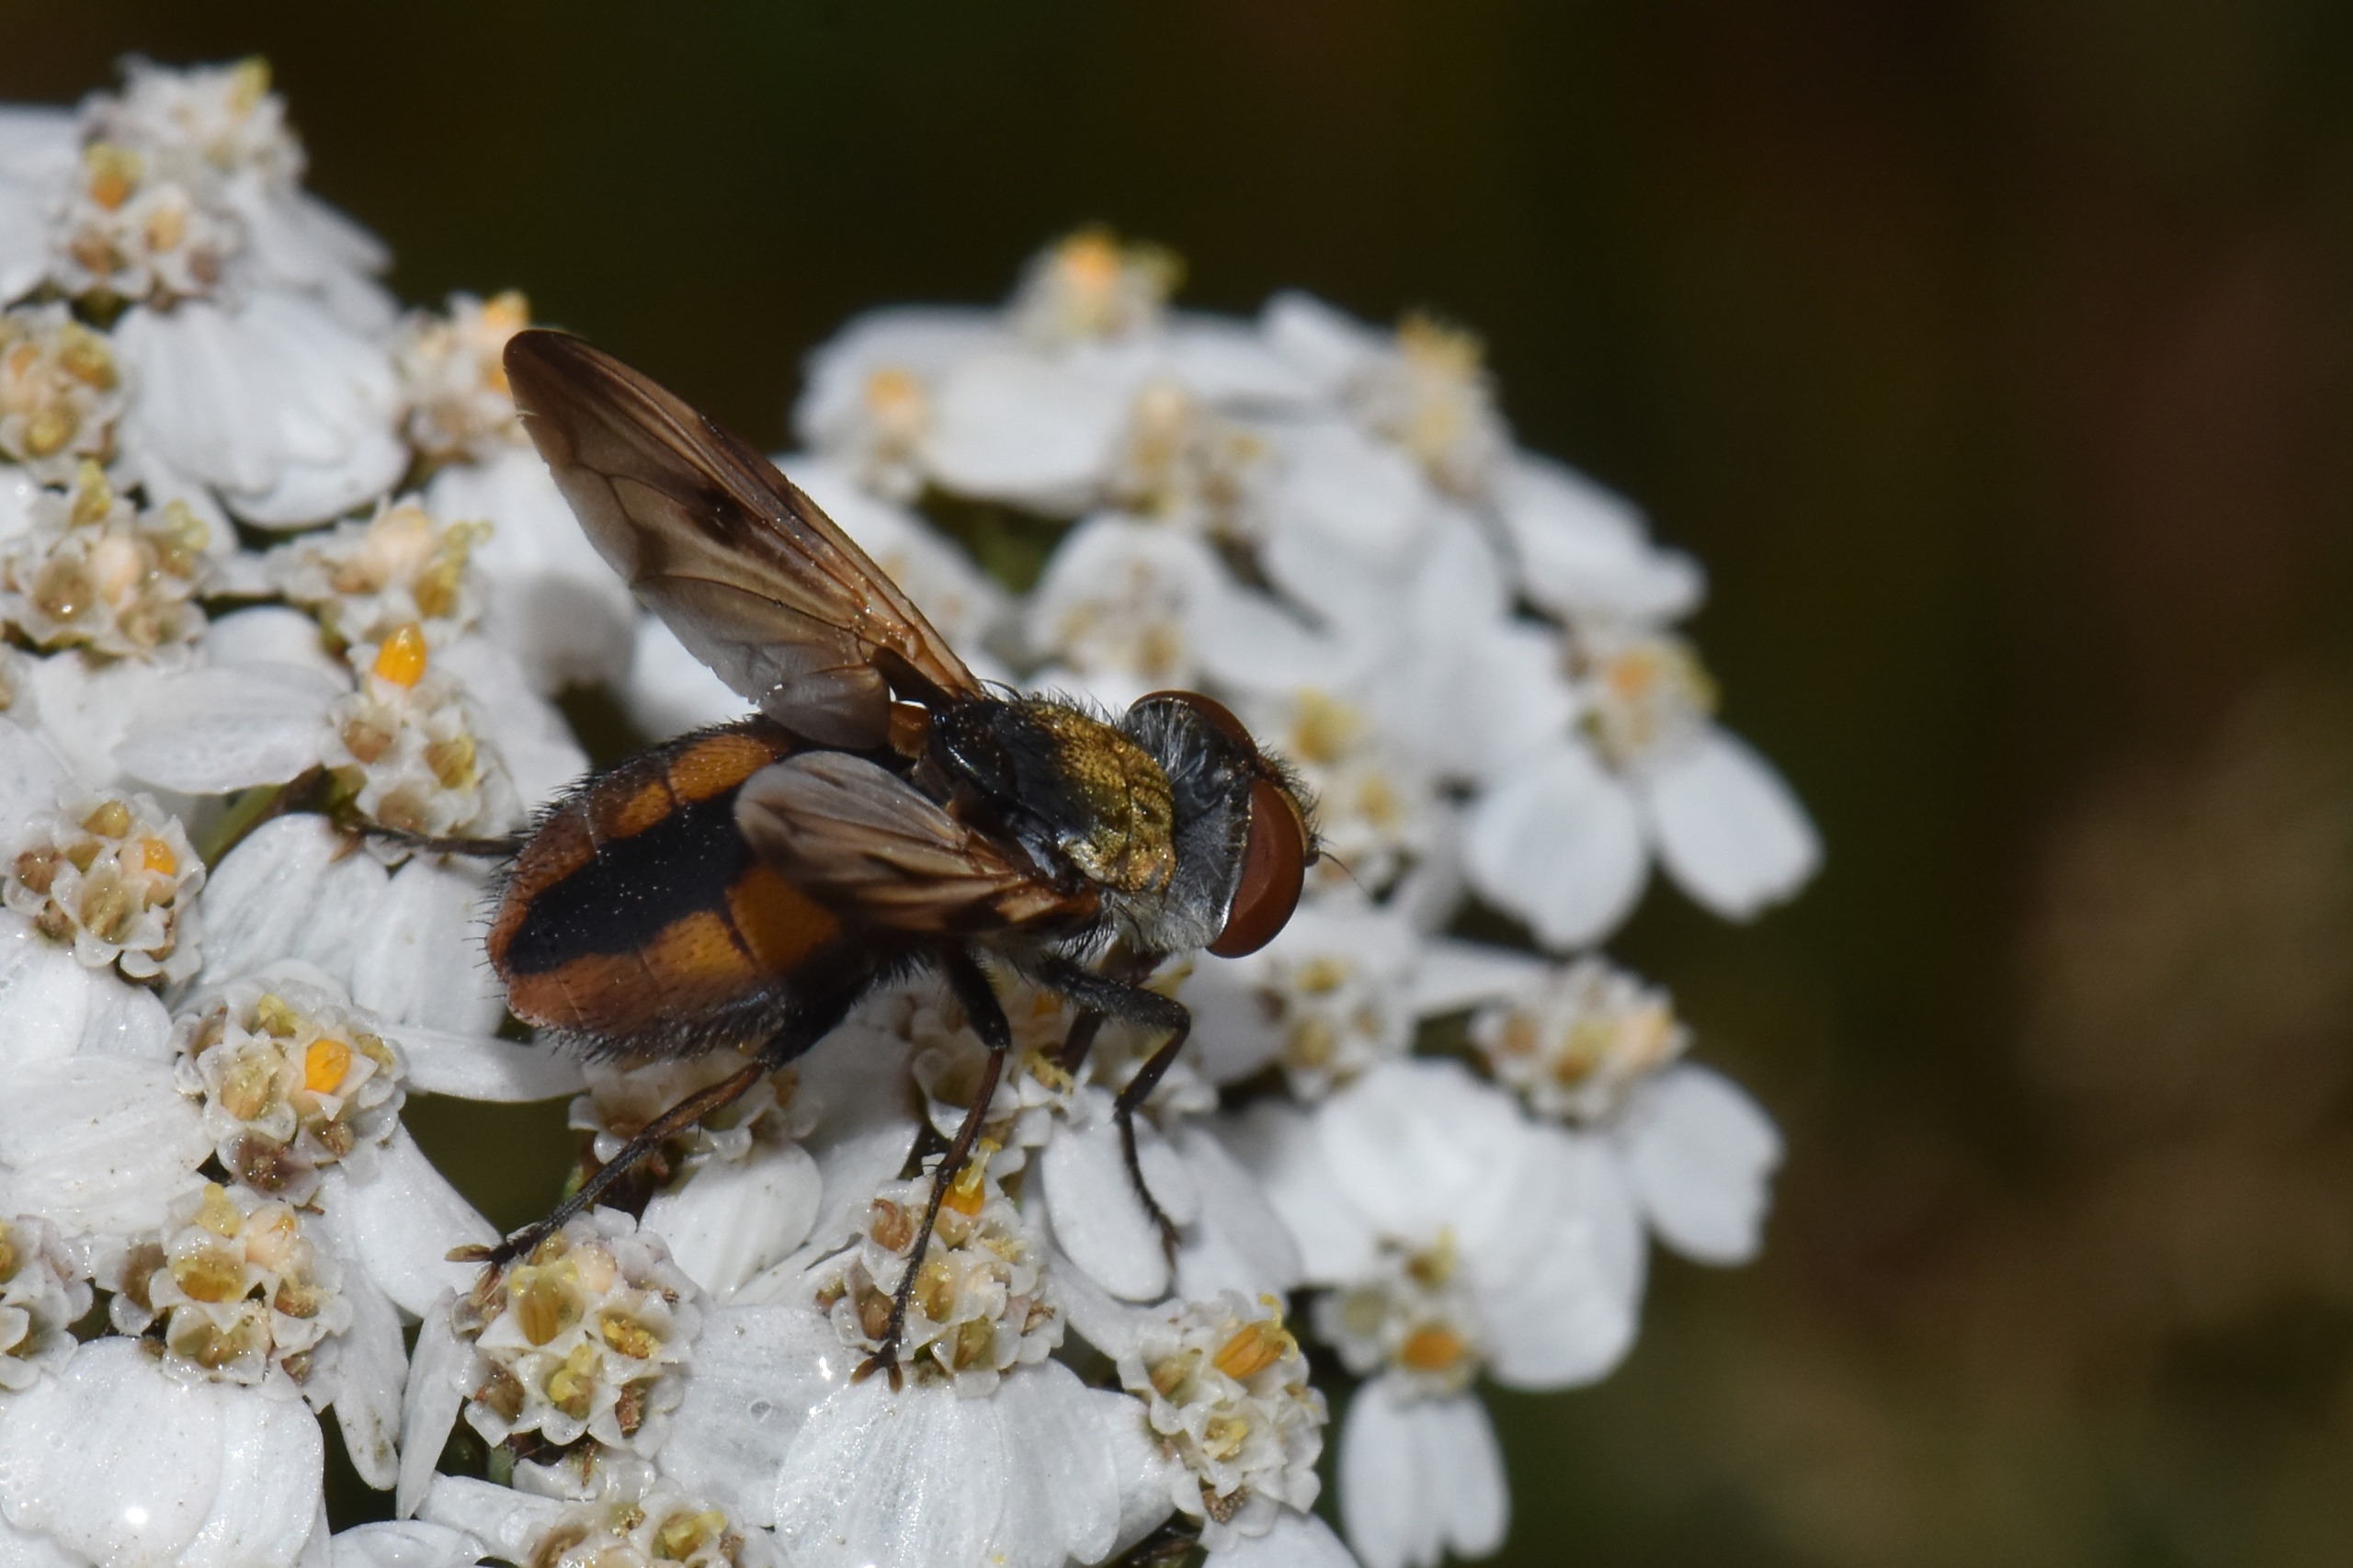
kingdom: Animalia
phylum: Arthropoda
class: Insecta
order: Diptera
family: Tachinidae
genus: Ectophasia
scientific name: Ectophasia crassipennis
